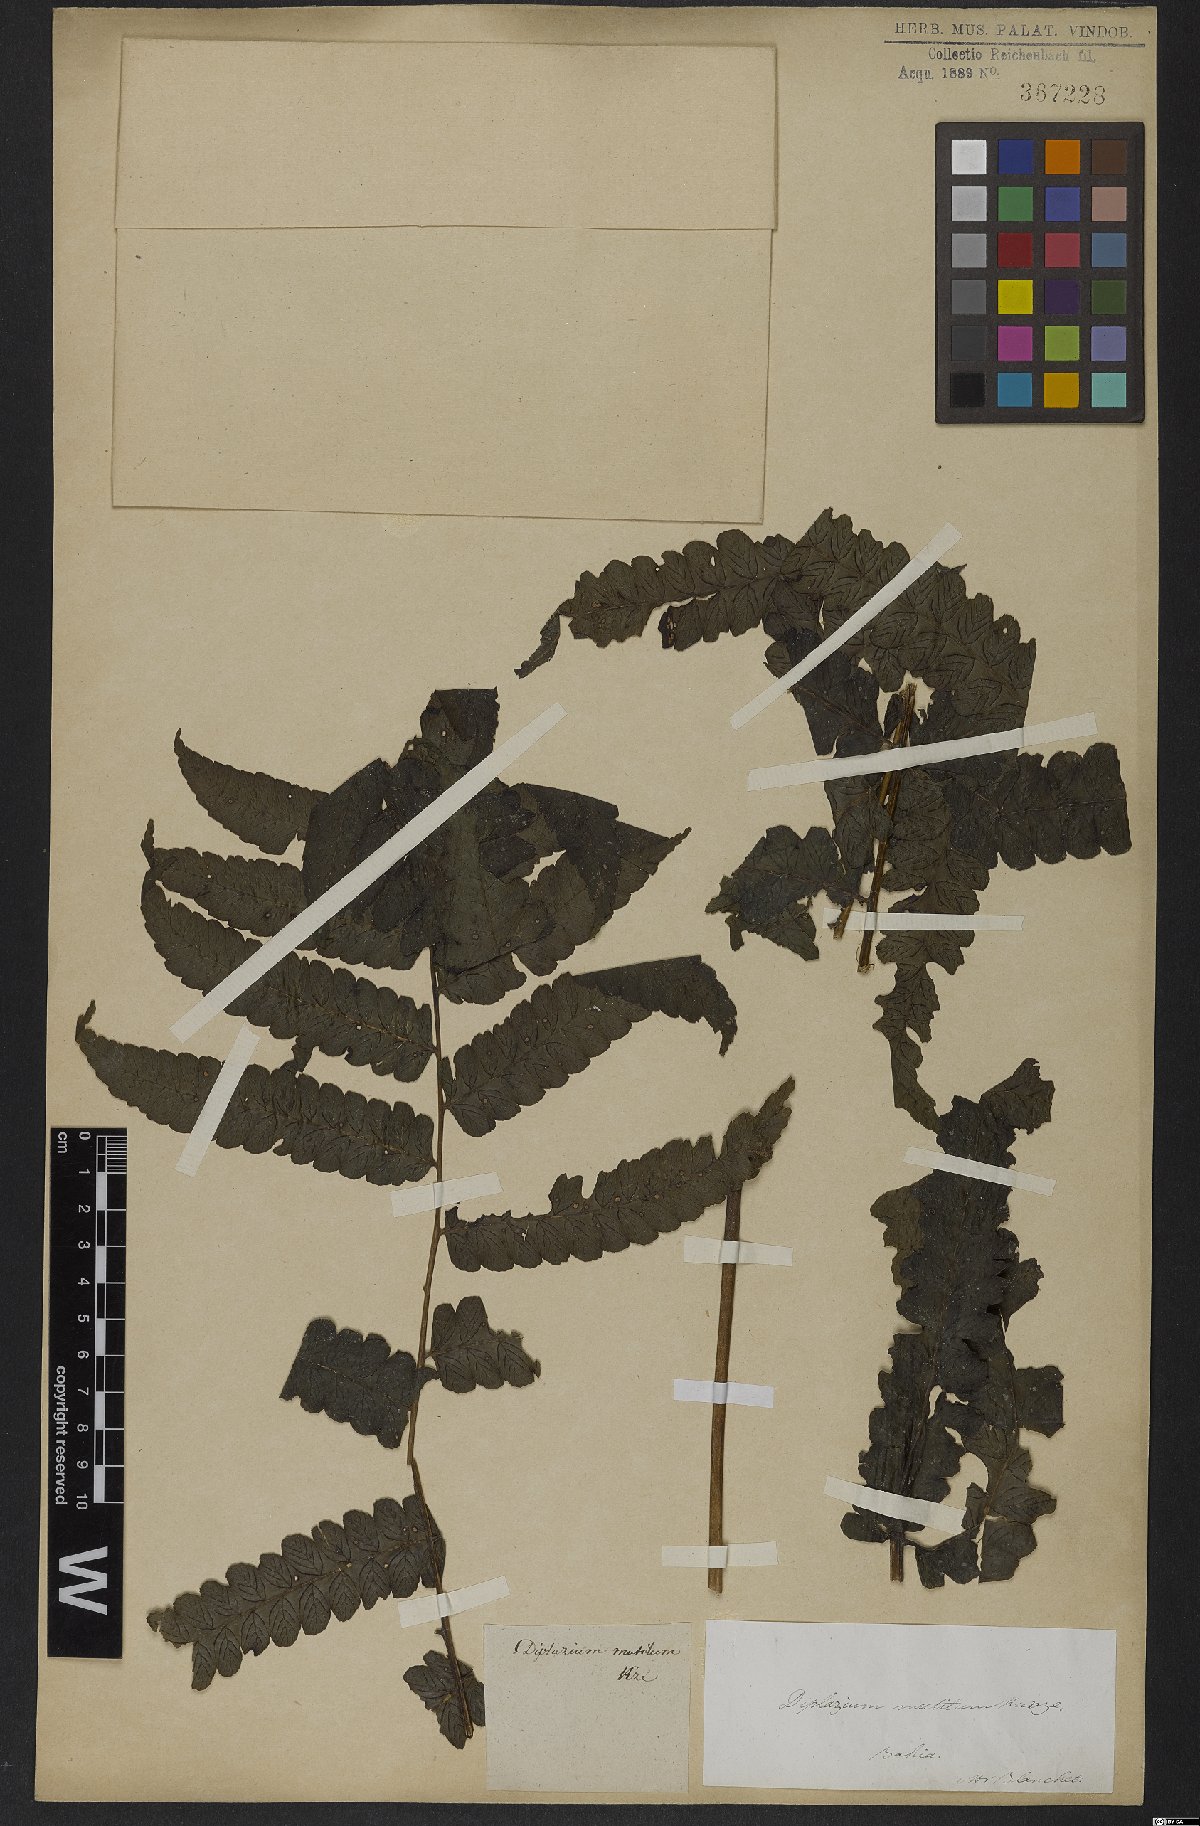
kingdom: Plantae
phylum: Tracheophyta
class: Polypodiopsida
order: Polypodiales
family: Athyriaceae
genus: Diplazium
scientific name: Diplazium mutilum
